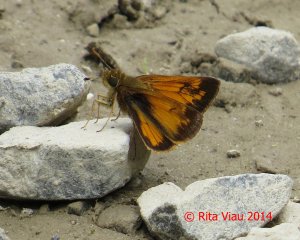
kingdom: Animalia
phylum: Arthropoda
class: Insecta
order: Lepidoptera
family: Hesperiidae
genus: Lon
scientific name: Lon hobomok
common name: Hobomok Skipper
